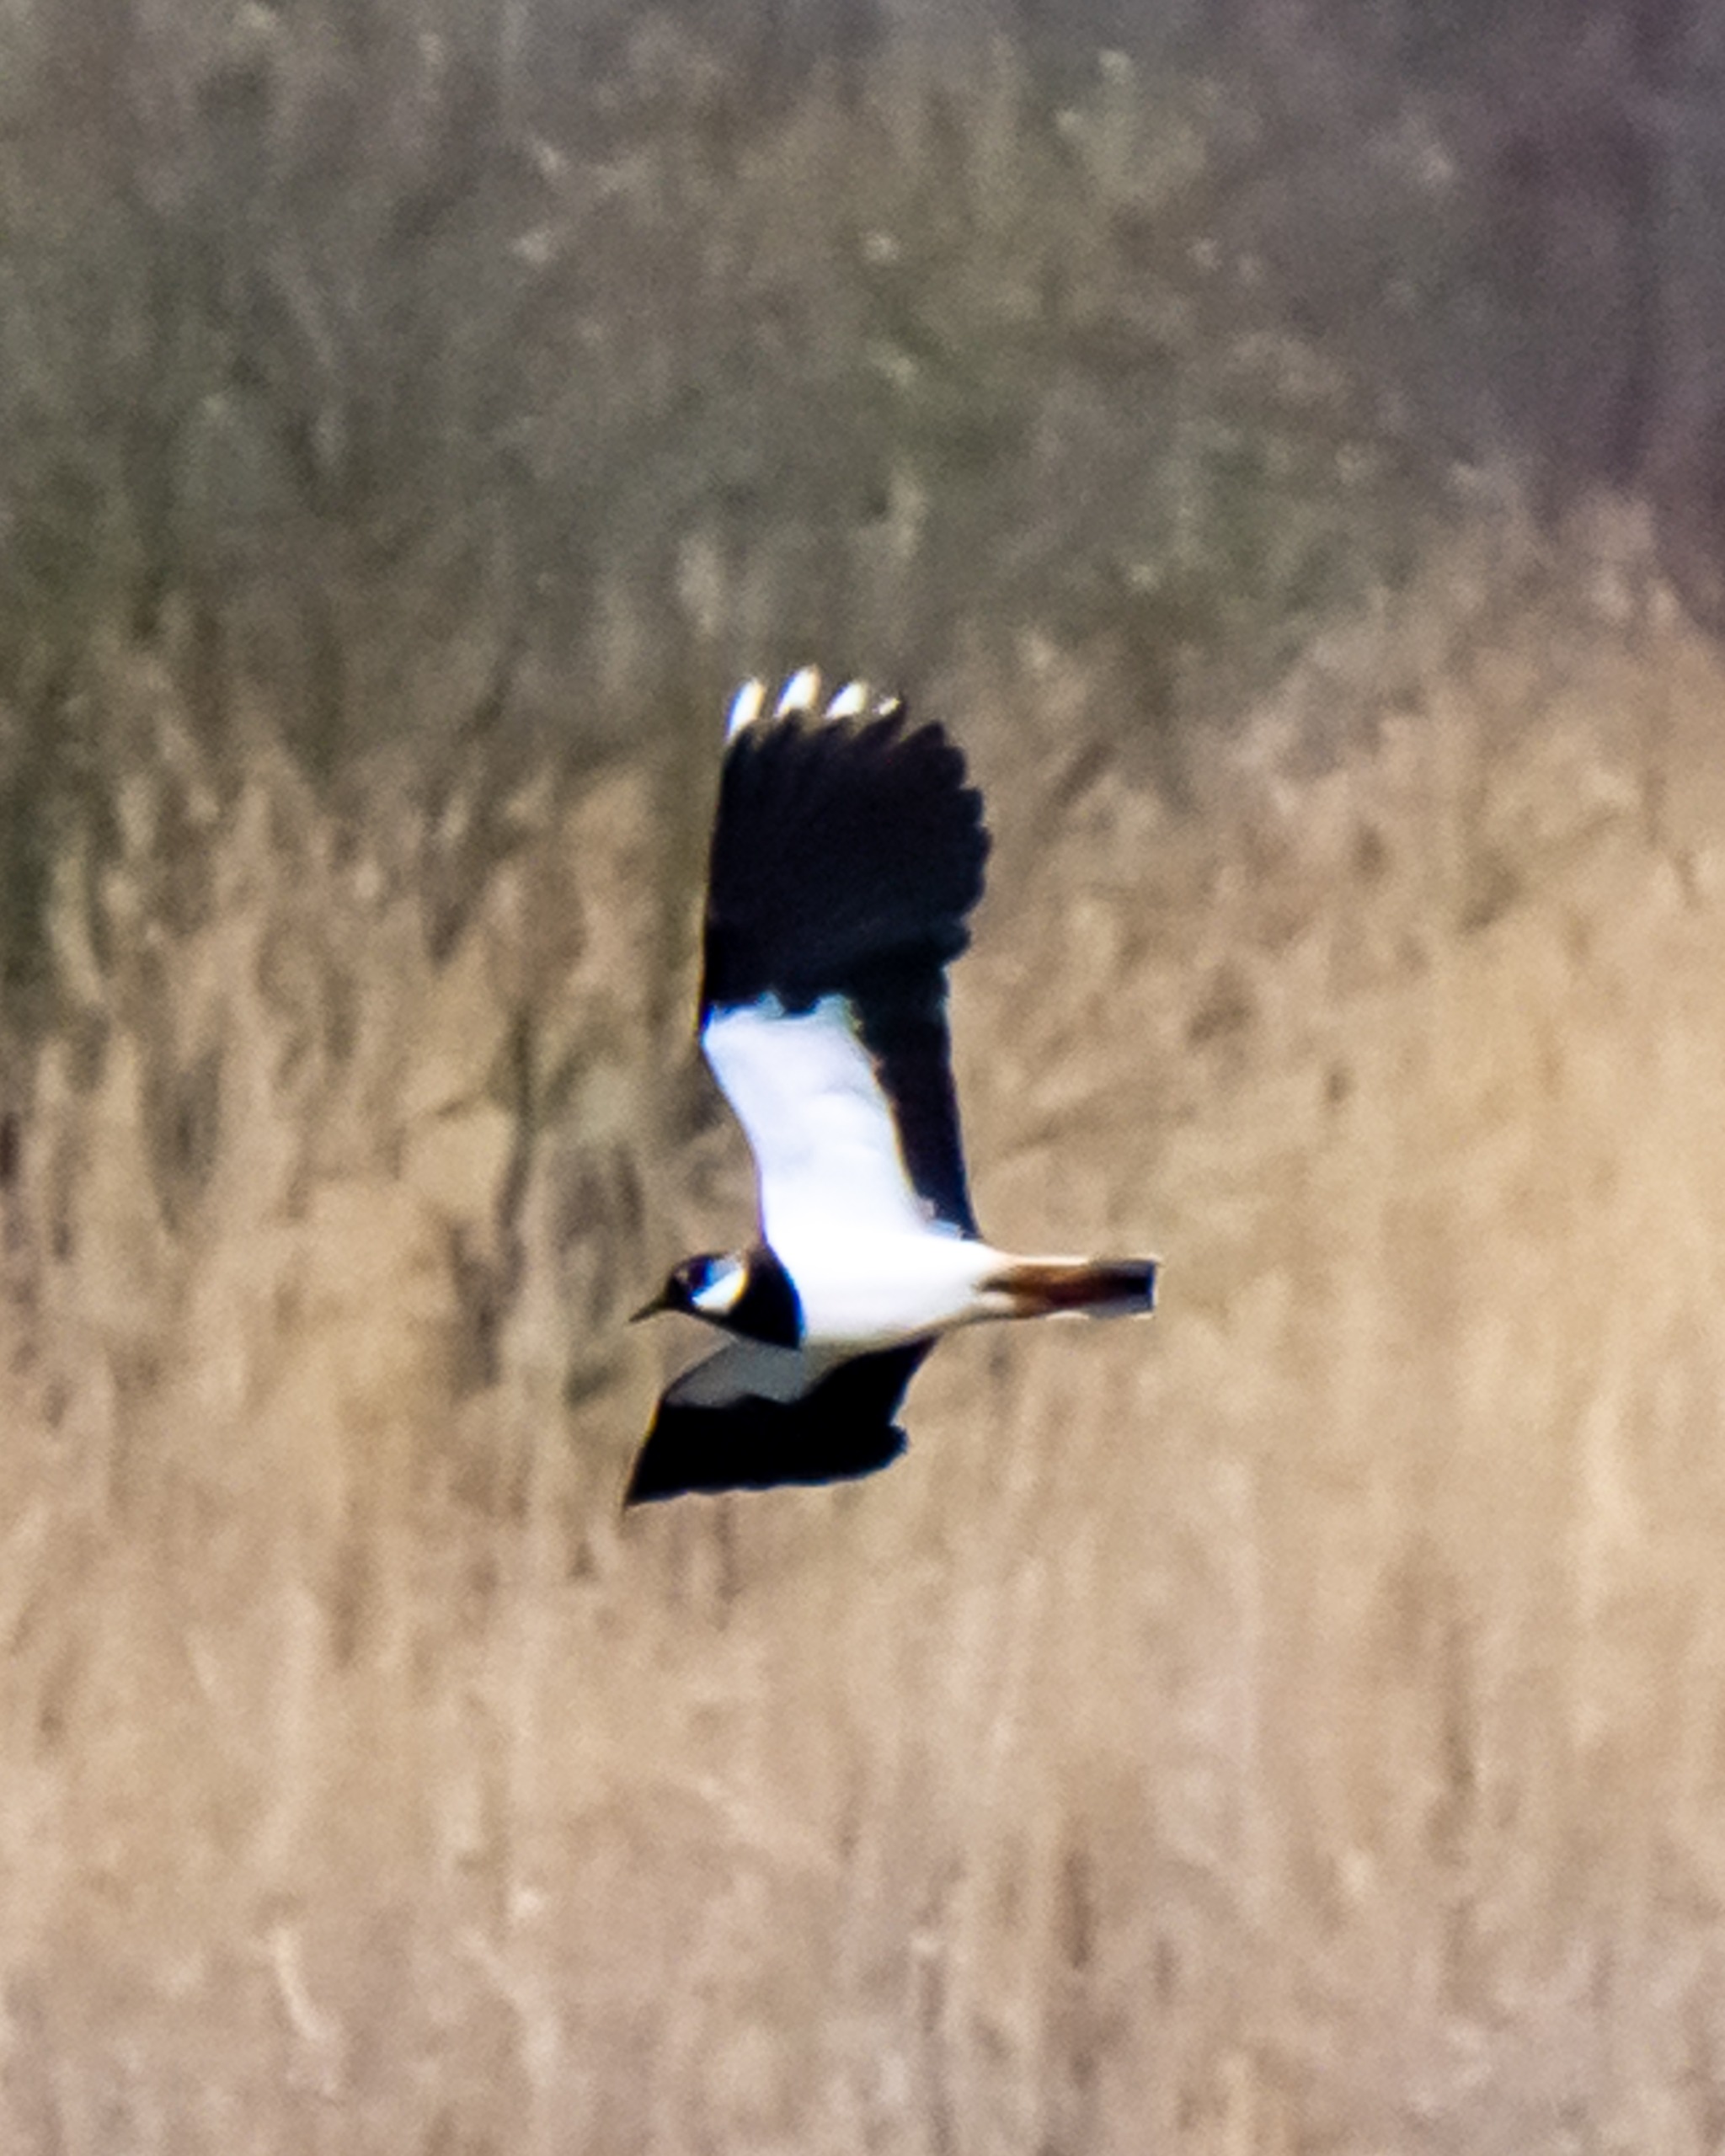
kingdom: Animalia
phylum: Chordata
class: Aves
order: Charadriiformes
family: Charadriidae
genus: Vanellus
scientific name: Vanellus vanellus
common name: Vibe
